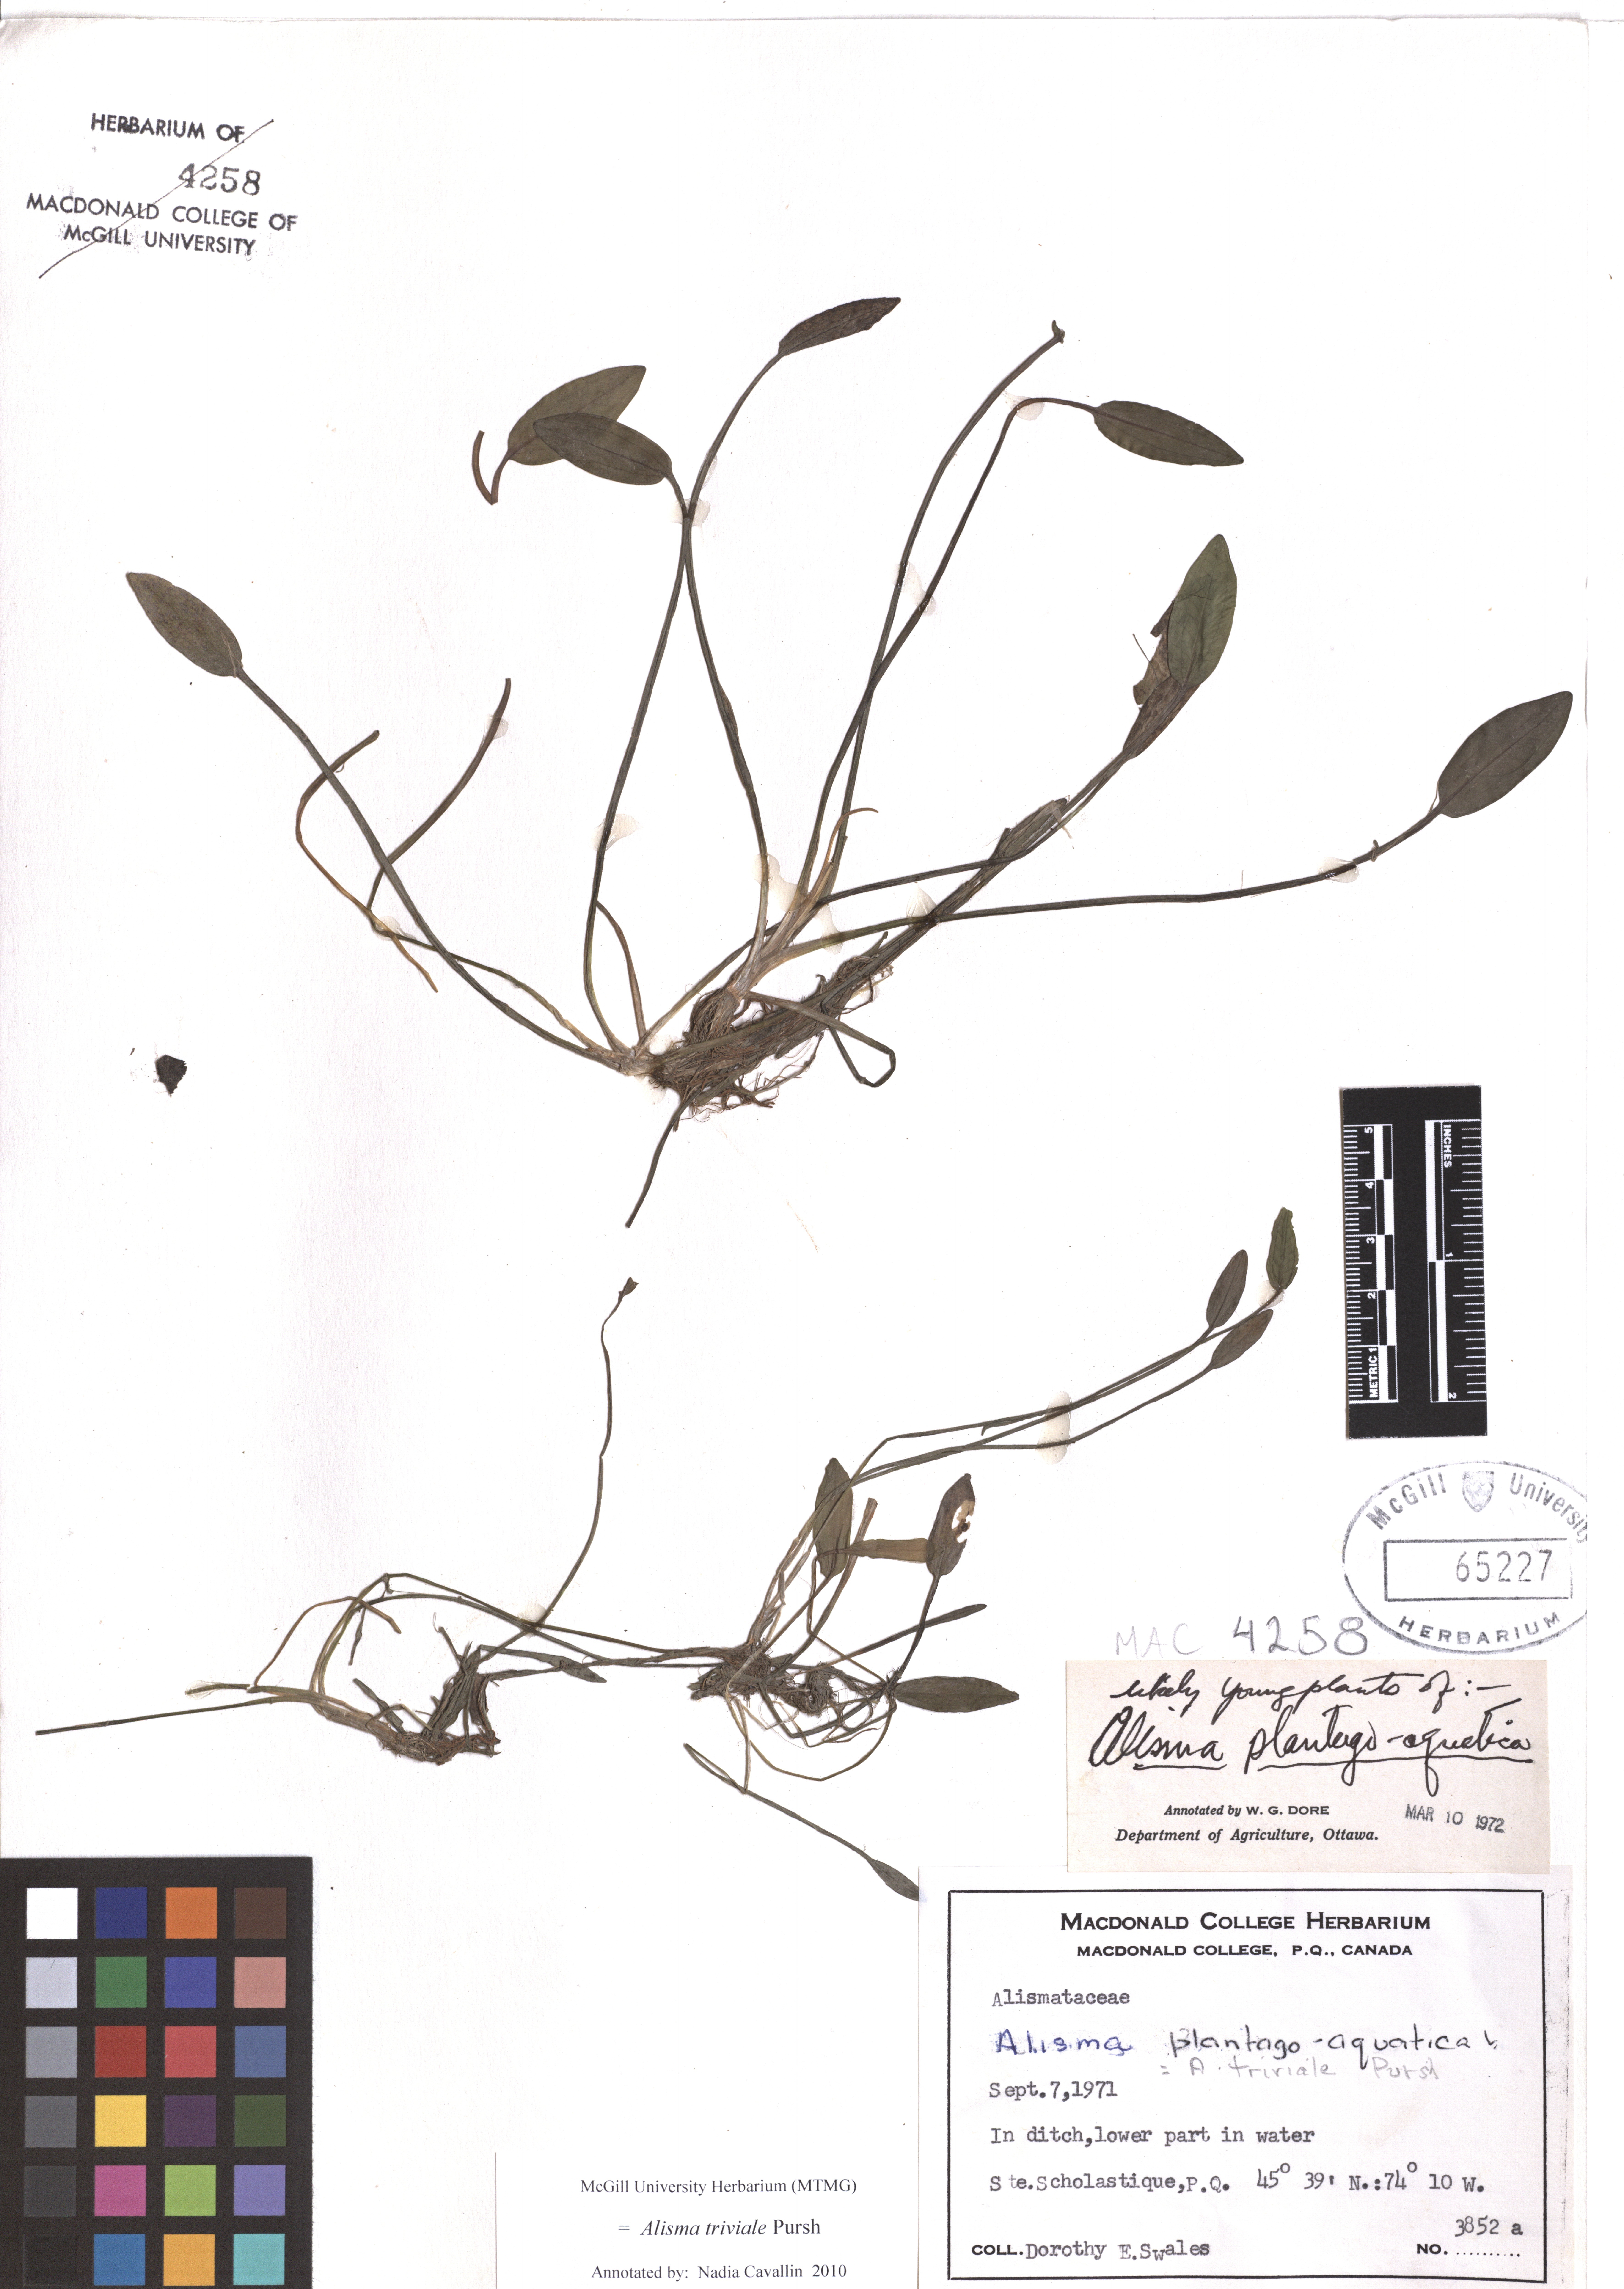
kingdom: Plantae
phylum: Tracheophyta
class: Liliopsida
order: Alismatales
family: Alismataceae
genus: Alisma
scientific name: Alisma triviale
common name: Northern water-plantain
